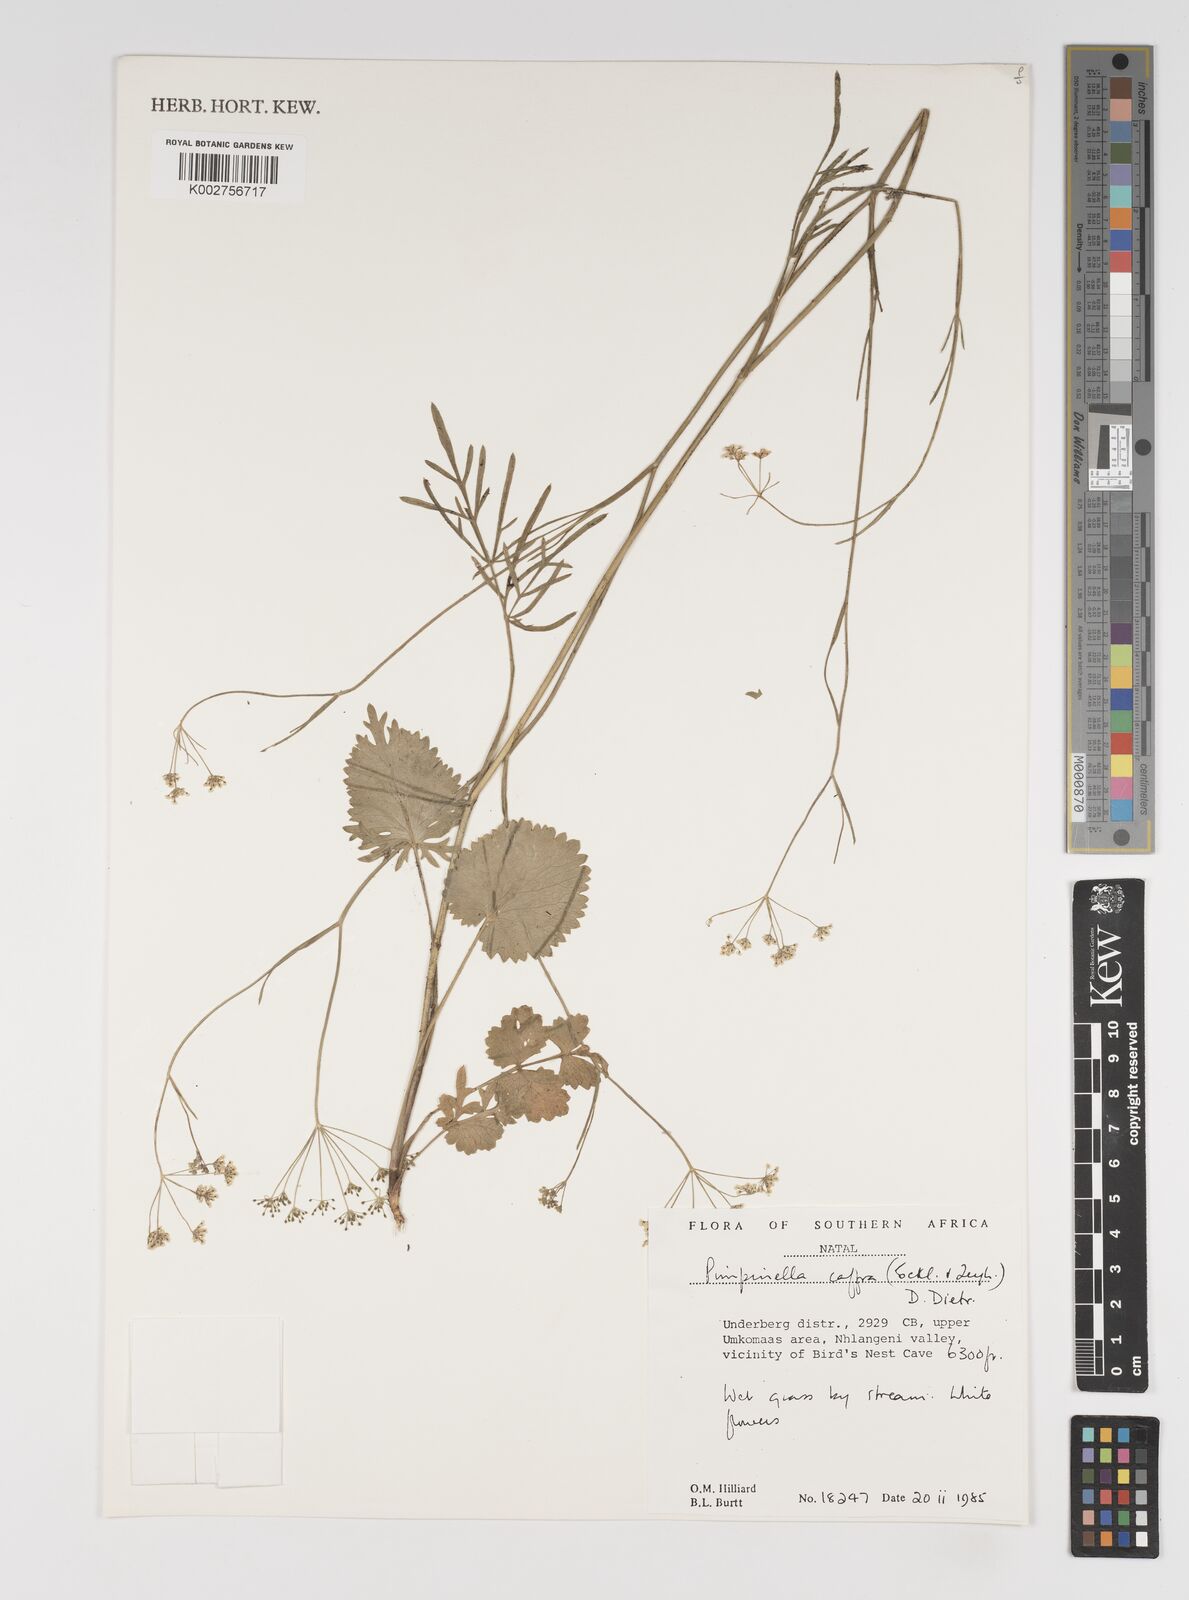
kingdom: Plantae
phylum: Tracheophyta
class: Magnoliopsida
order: Apiales
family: Apiaceae
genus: Pimpinella
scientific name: Pimpinella
